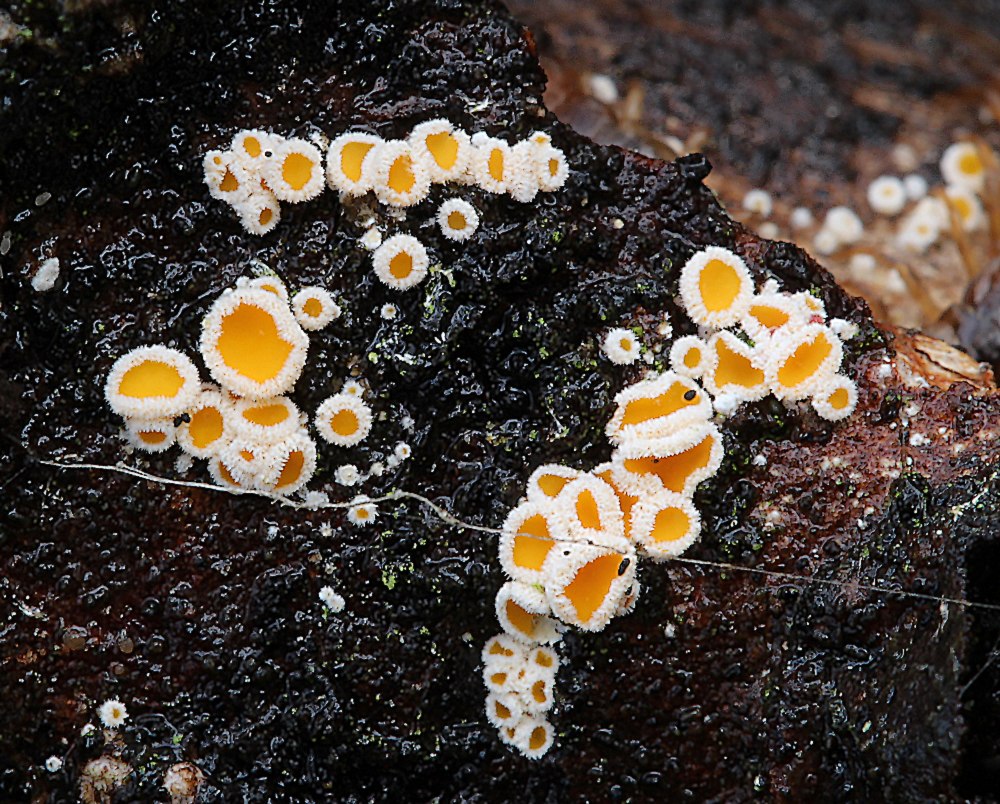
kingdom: Fungi
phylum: Ascomycota
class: Leotiomycetes
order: Helotiales
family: Lachnaceae
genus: Lachnellula
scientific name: Lachnellula
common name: frynseskive
